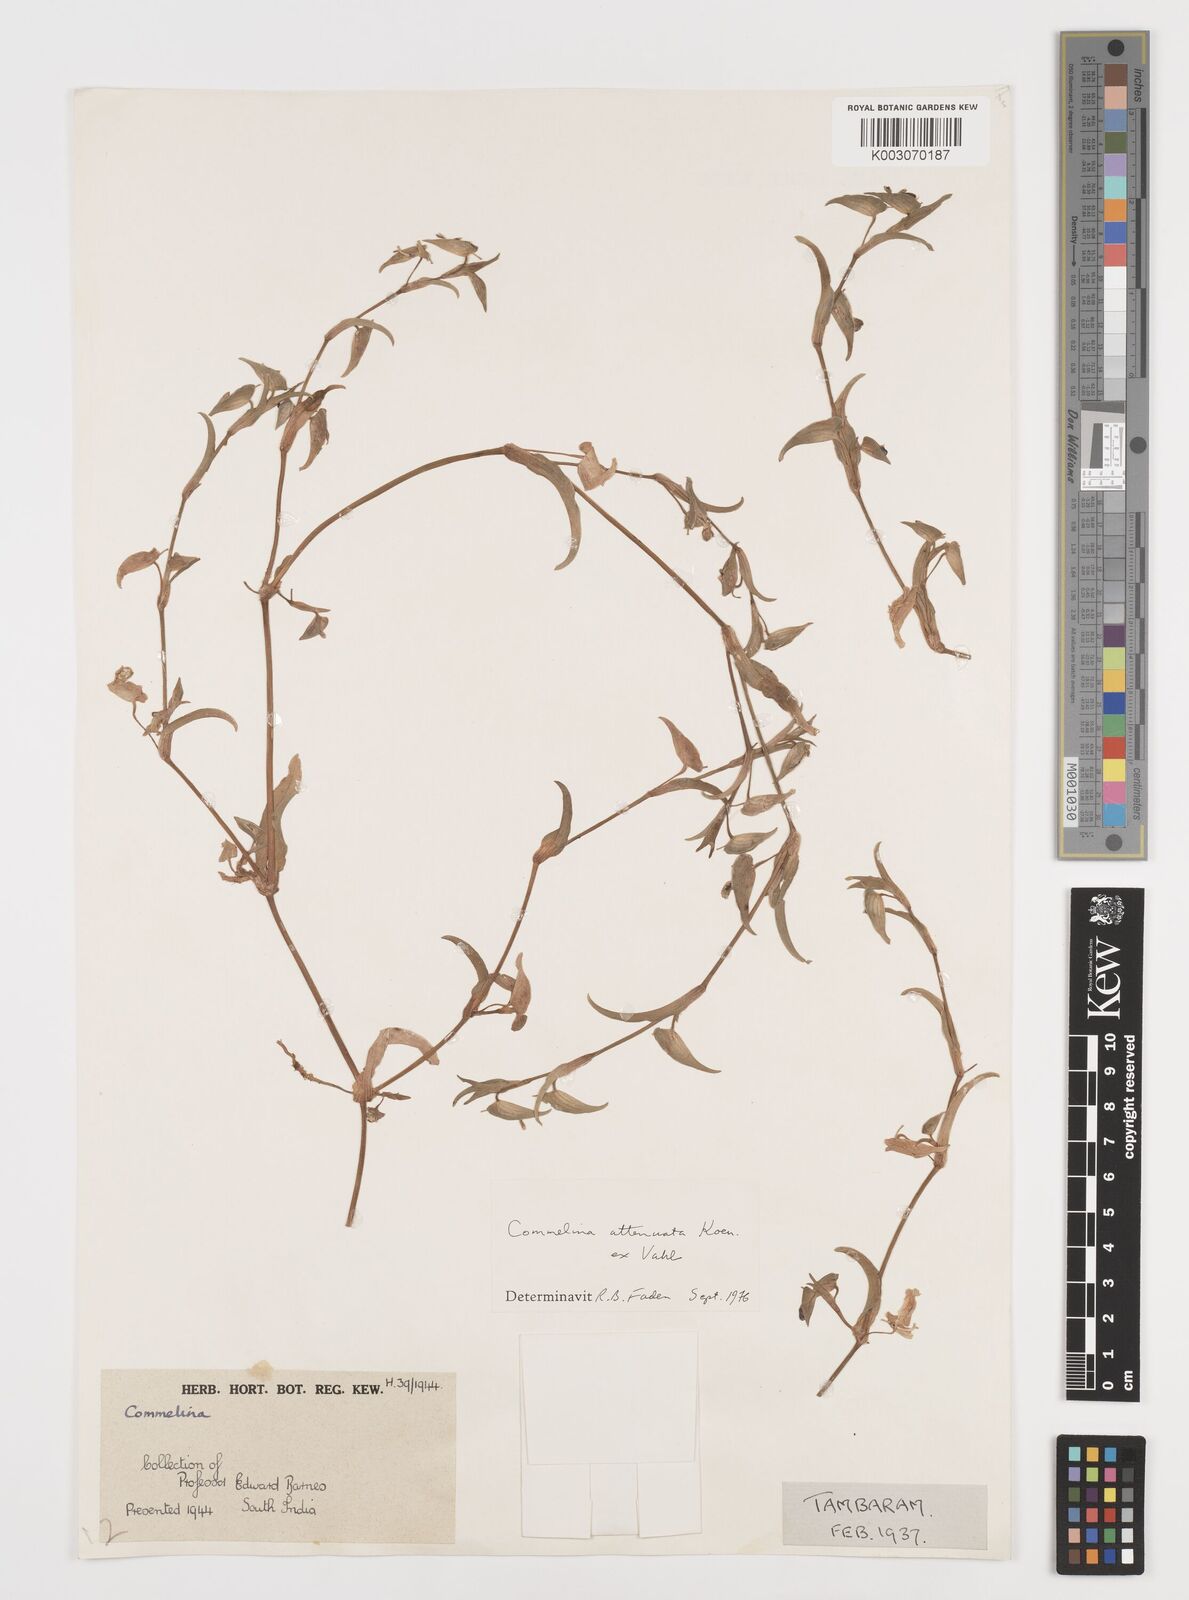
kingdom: Plantae
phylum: Tracheophyta
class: Liliopsida
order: Commelinales
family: Commelinaceae
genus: Commelina
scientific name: Commelina attenuata
